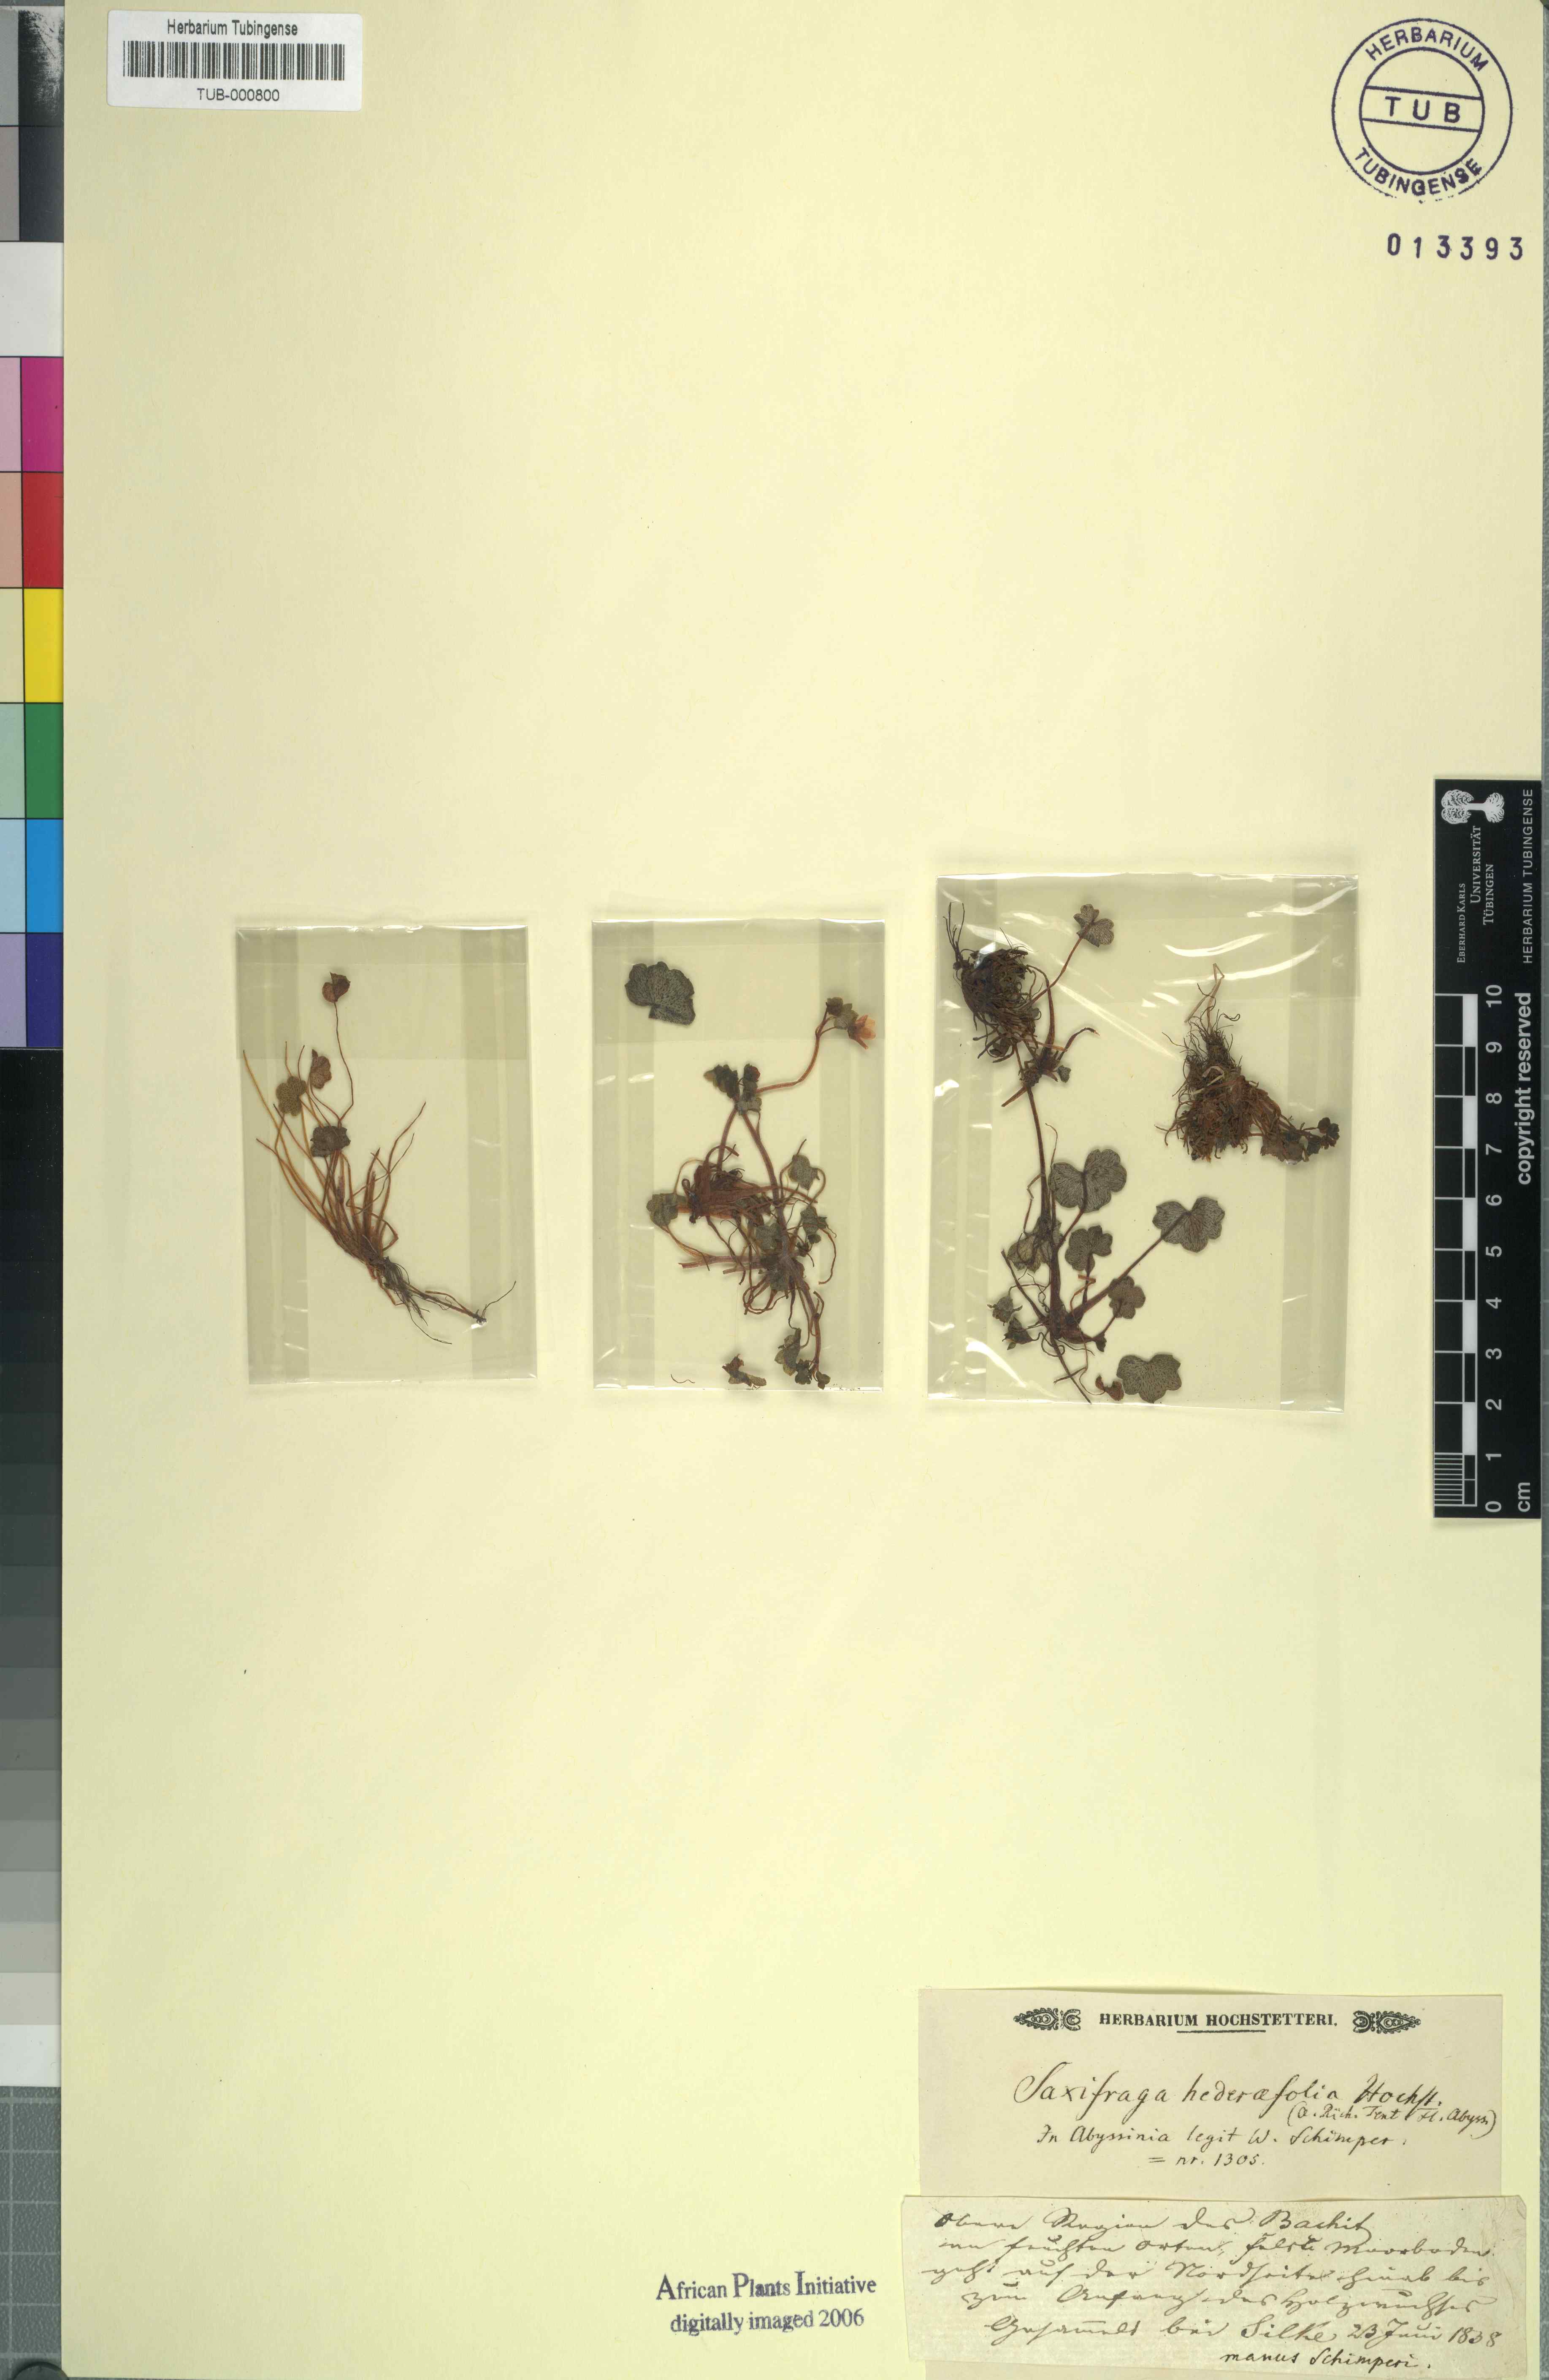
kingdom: Plantae
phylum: Tracheophyta
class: Magnoliopsida
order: Saxifragales
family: Saxifragaceae
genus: Saxifraga
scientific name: Saxifraga hederifolia
